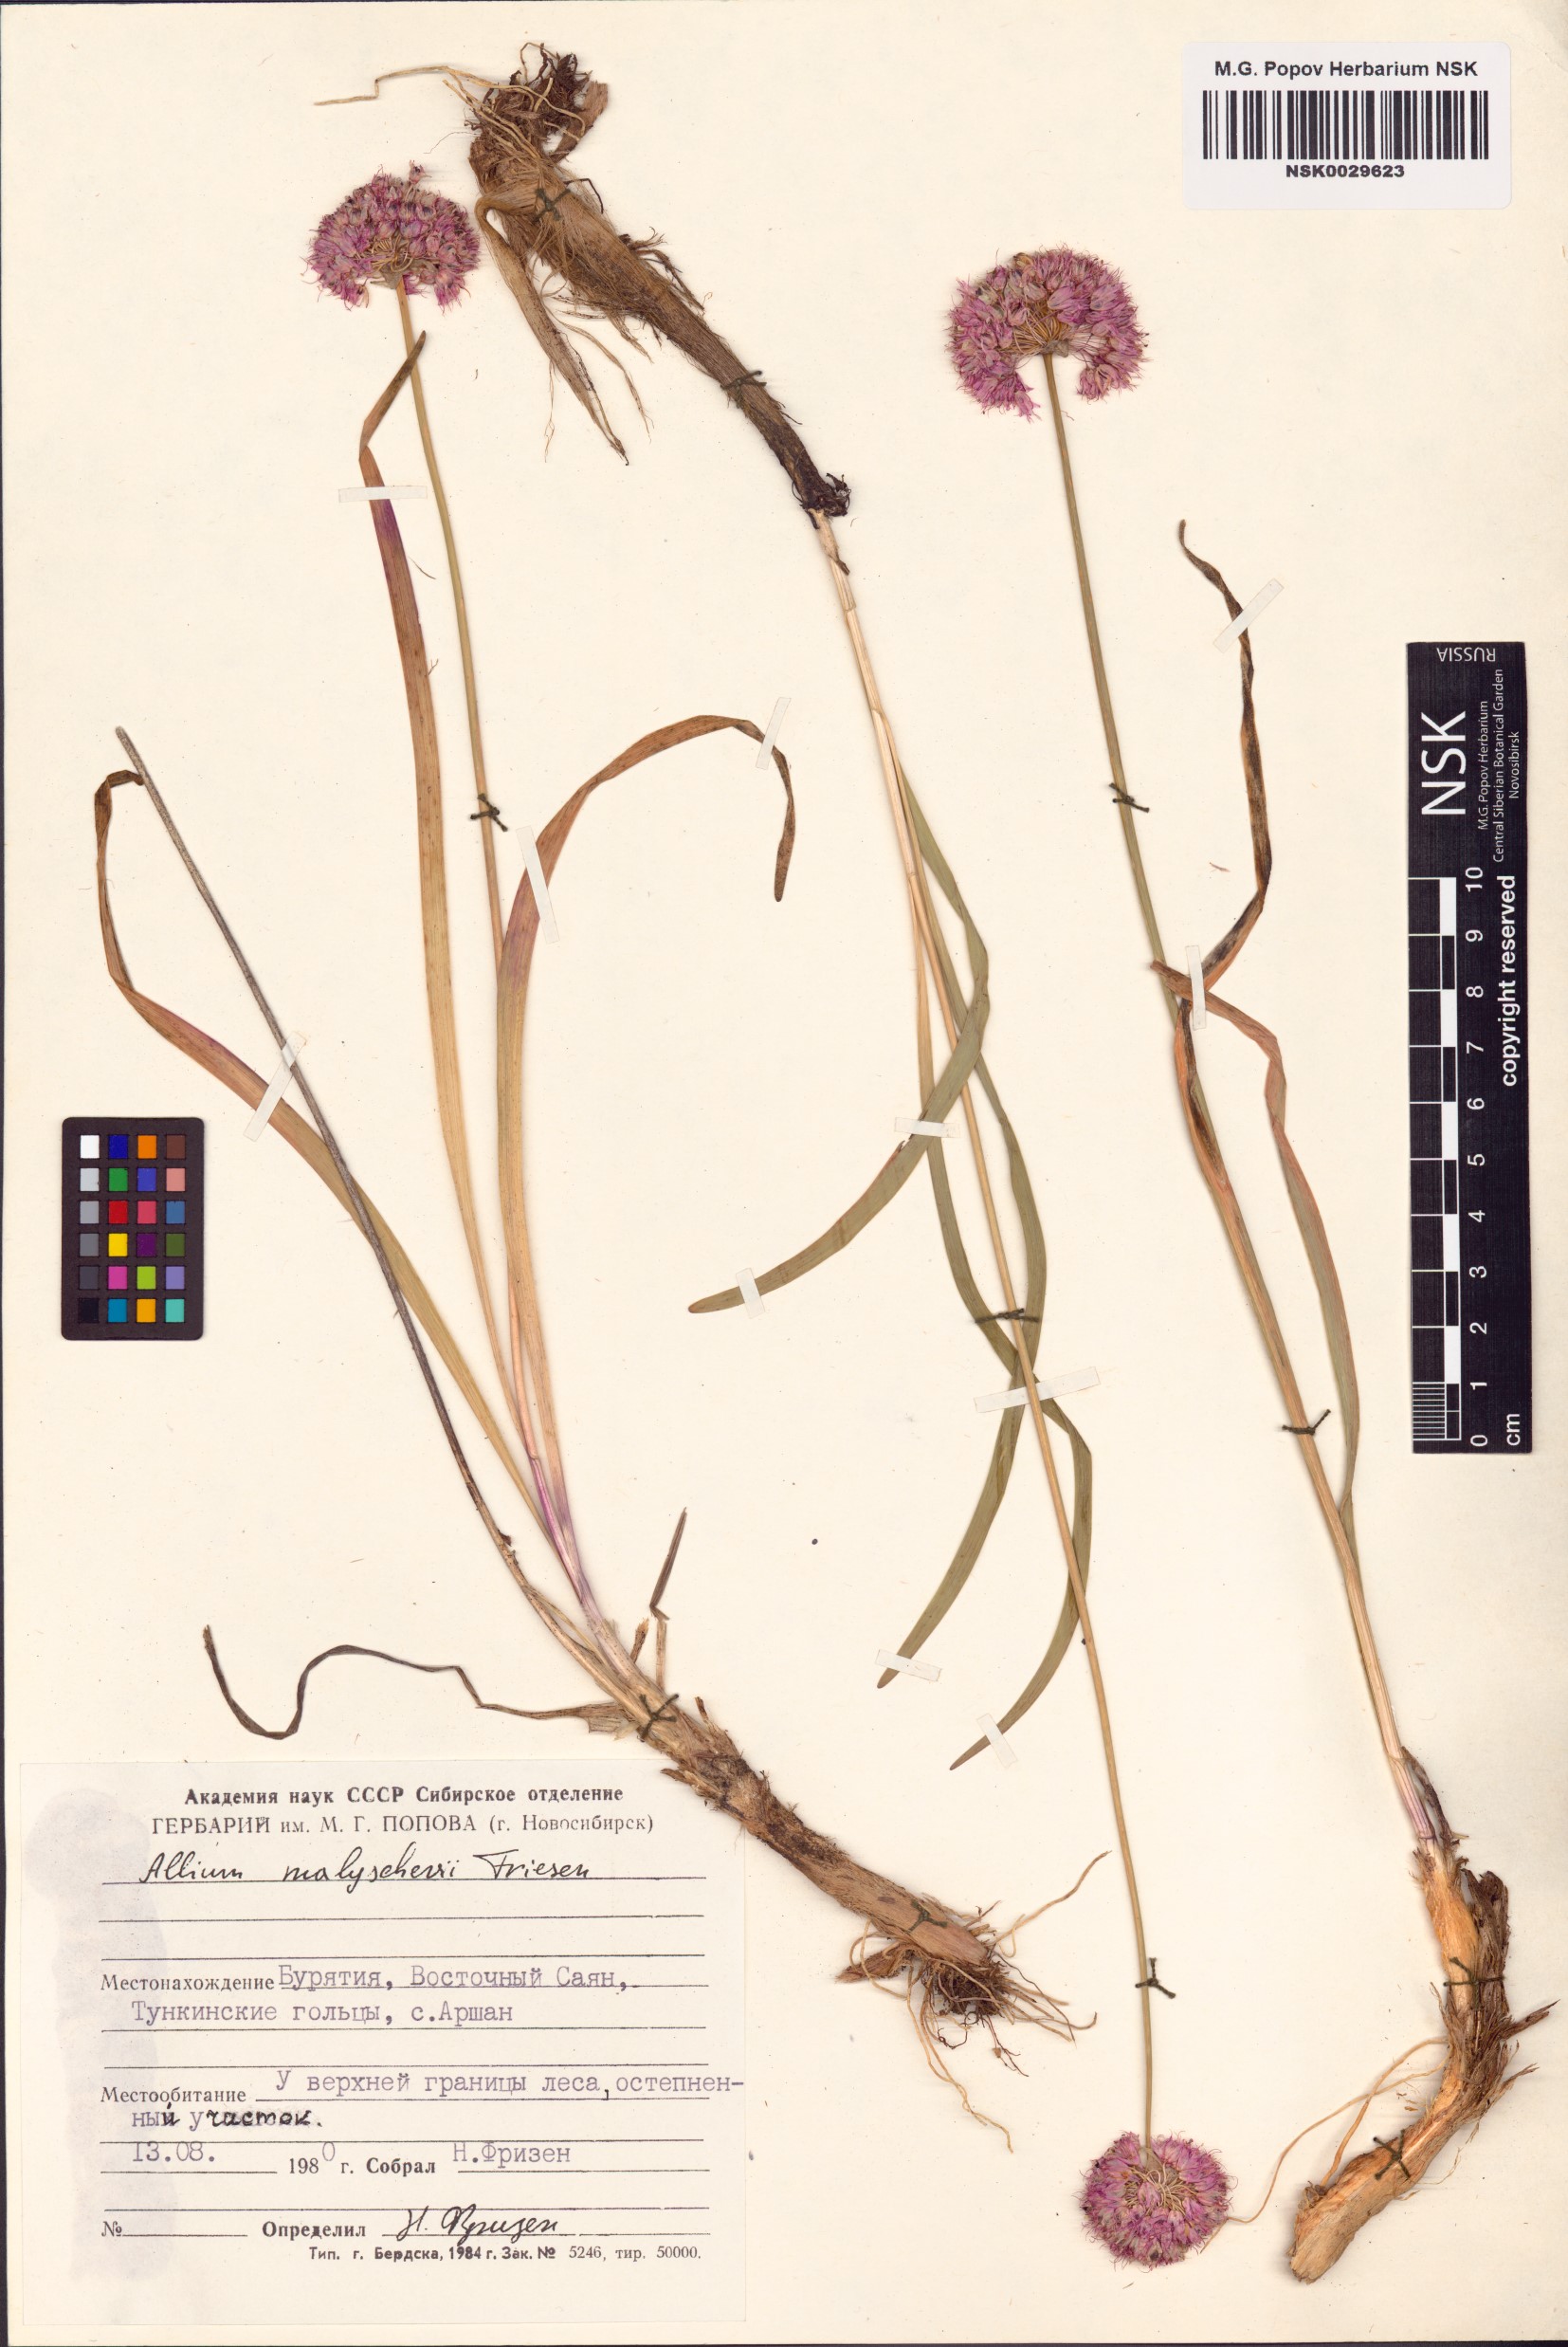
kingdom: Plantae
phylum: Tracheophyta
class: Liliopsida
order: Asparagales
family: Amaryllidaceae
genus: Allium
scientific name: Allium malyschevii
